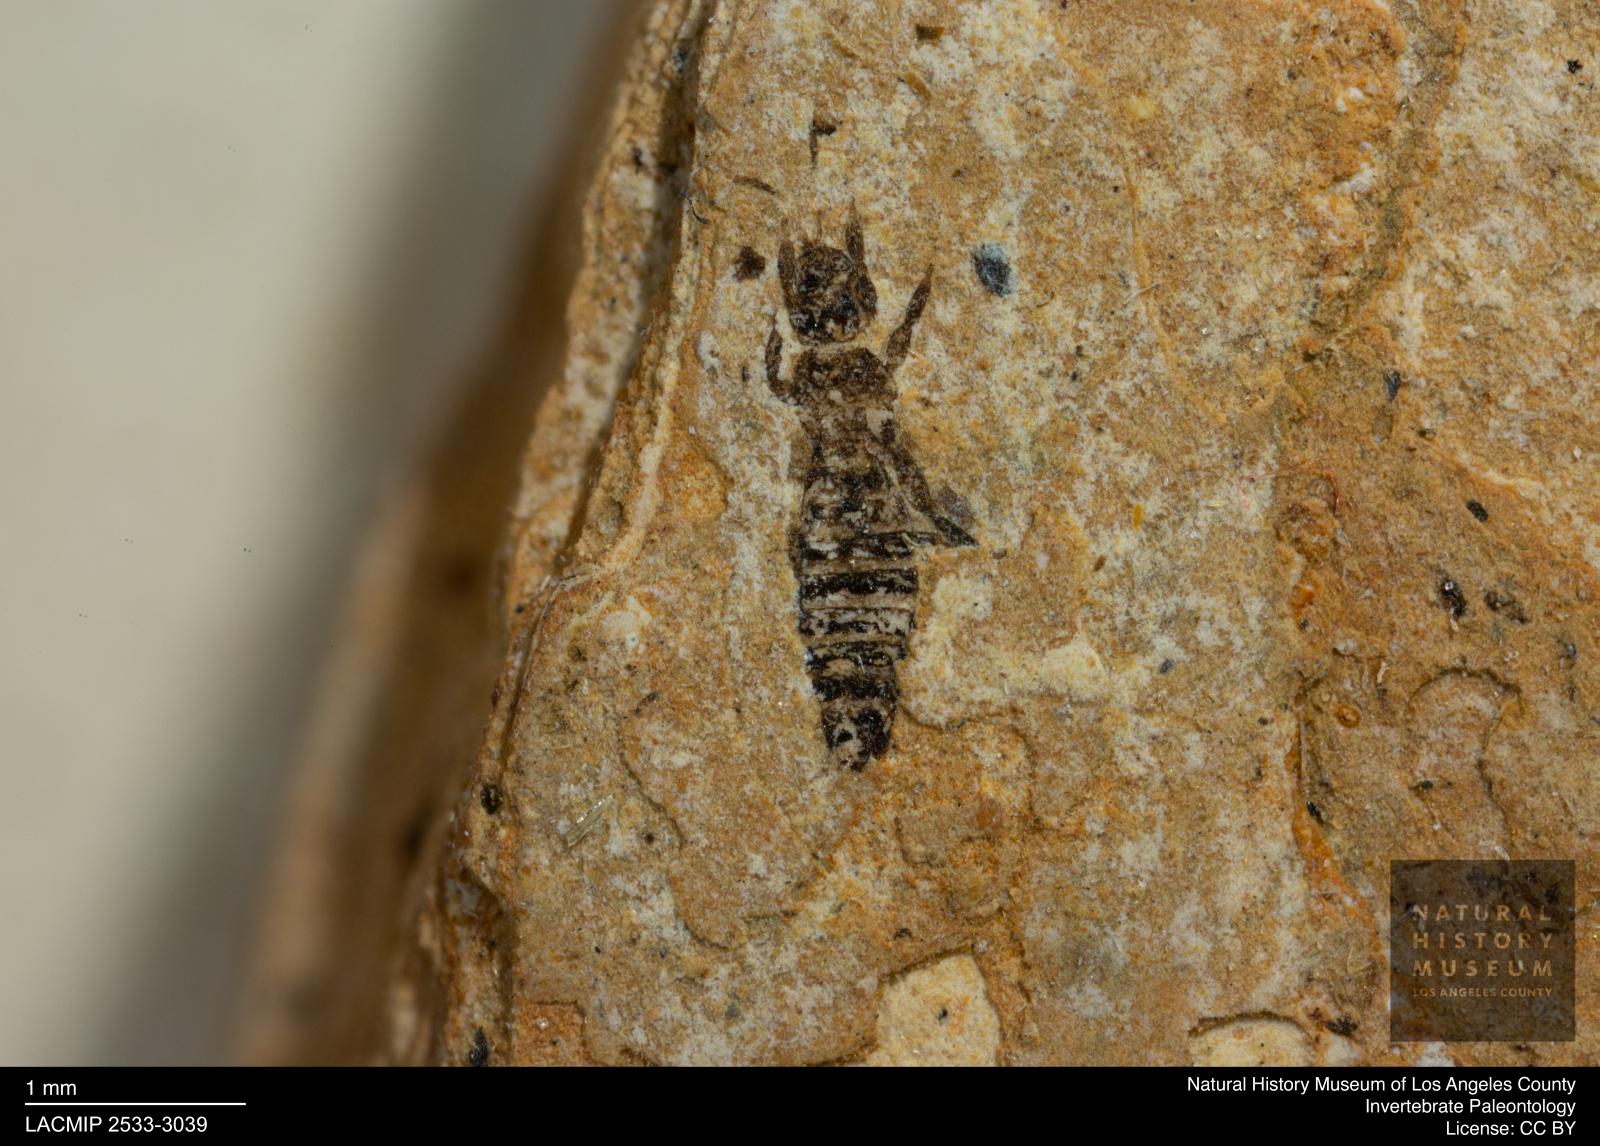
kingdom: Animalia
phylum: Arthropoda
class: Insecta
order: Thysanoptera
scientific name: Thysanoptera
